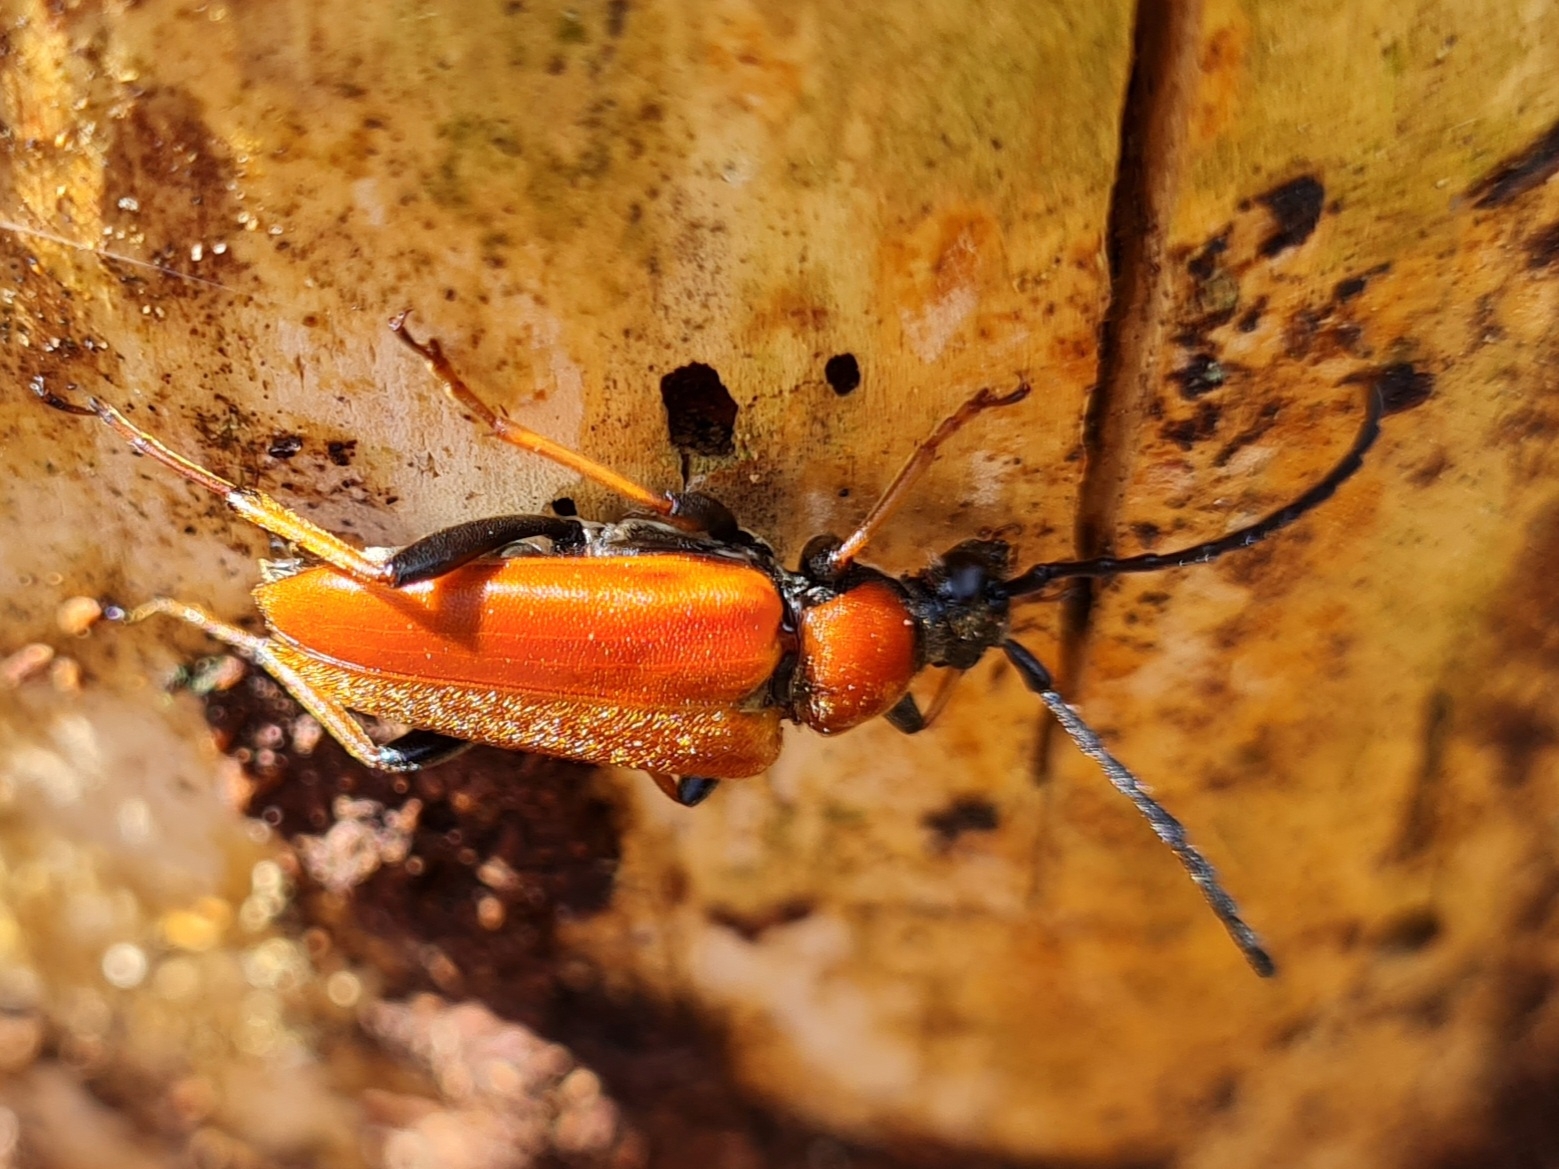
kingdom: Animalia
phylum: Arthropoda
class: Insecta
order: Coleoptera
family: Cerambycidae
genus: Stictoleptura
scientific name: Stictoleptura rubra
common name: Rød blomsterbuk
